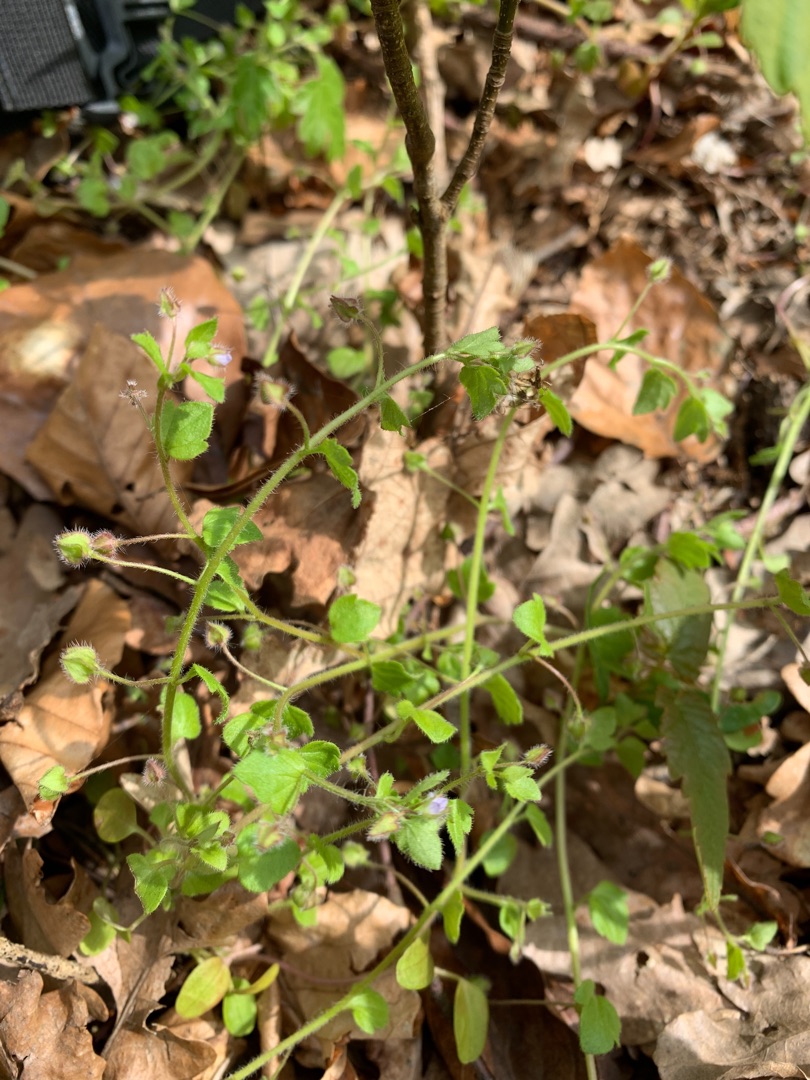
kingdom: Plantae
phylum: Tracheophyta
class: Magnoliopsida
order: Lamiales
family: Plantaginaceae
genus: Veronica
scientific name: Veronica sublobata
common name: Krat-ærenpris
